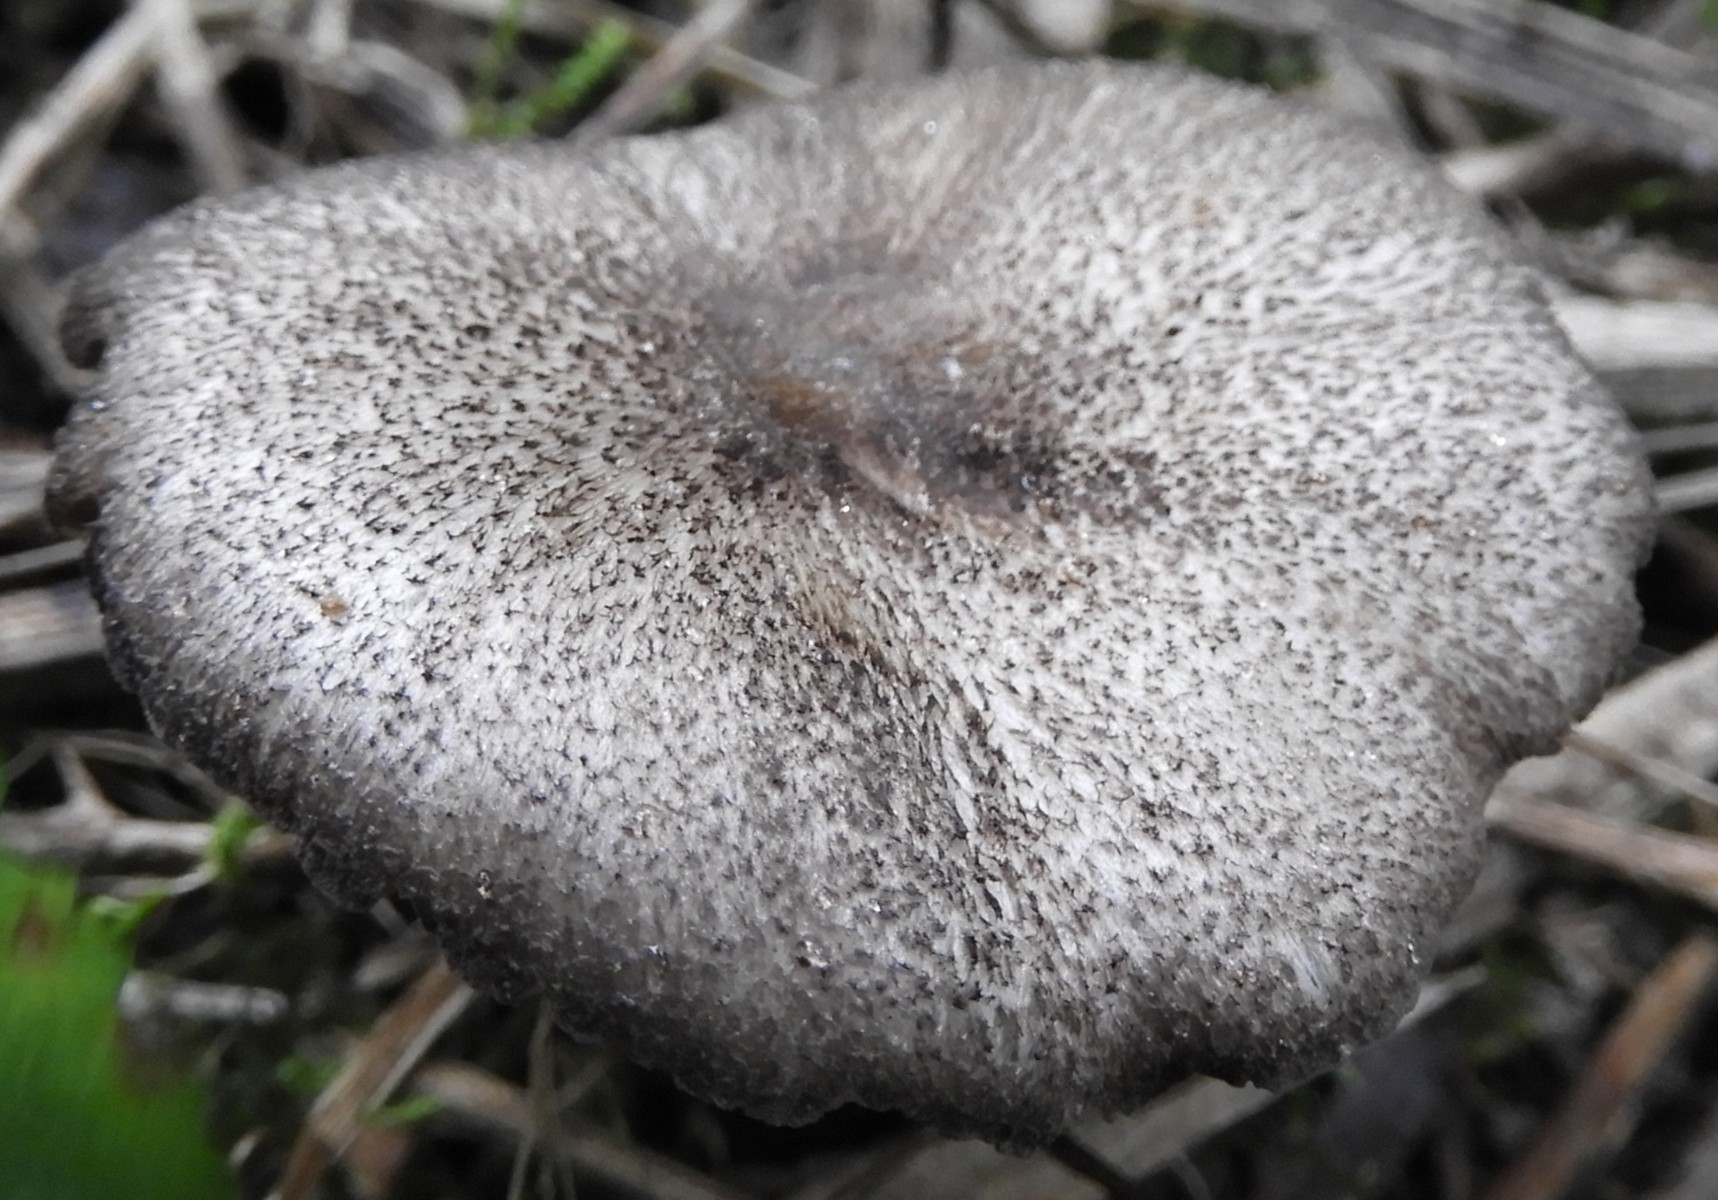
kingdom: Fungi
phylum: Basidiomycota
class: Agaricomycetes
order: Agaricales
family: Entolomataceae
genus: Entoloma
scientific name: Entoloma waverenii
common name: trævlet rødblad
